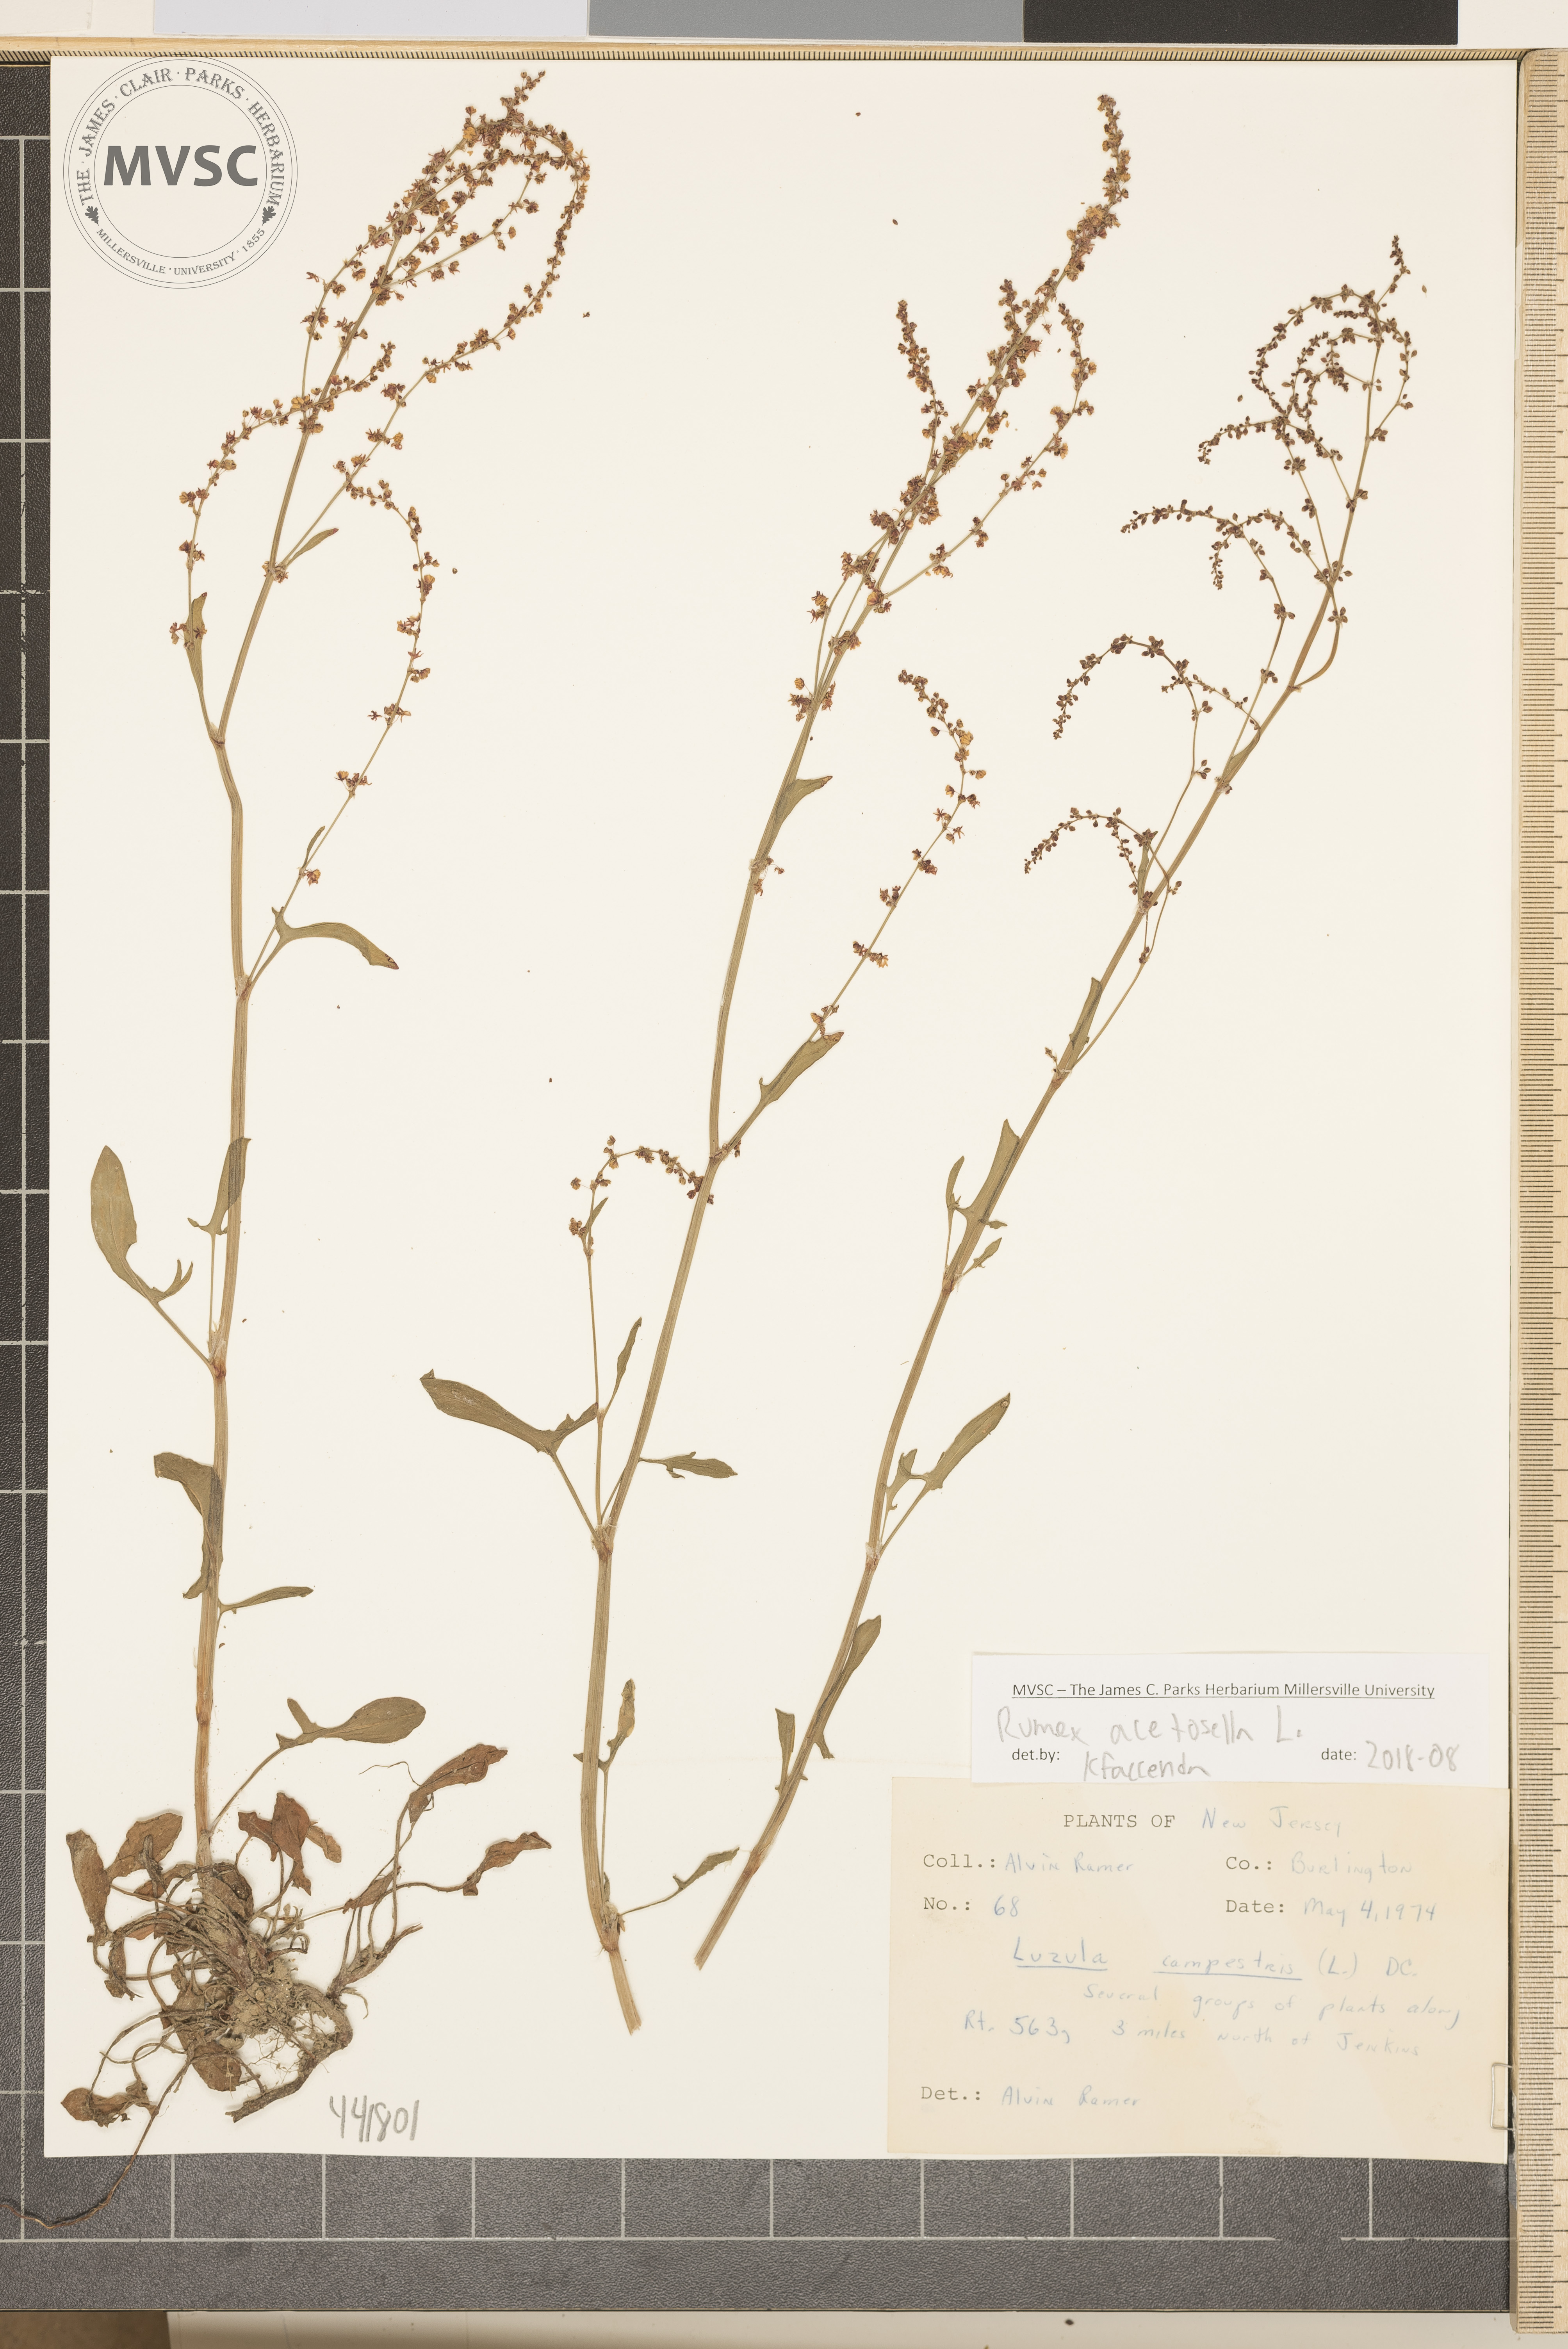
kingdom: Plantae
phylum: Tracheophyta
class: Magnoliopsida
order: Caryophyllales
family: Polygonaceae
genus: Rumex
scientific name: Rumex acetosella
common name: Common sheep sorrel
